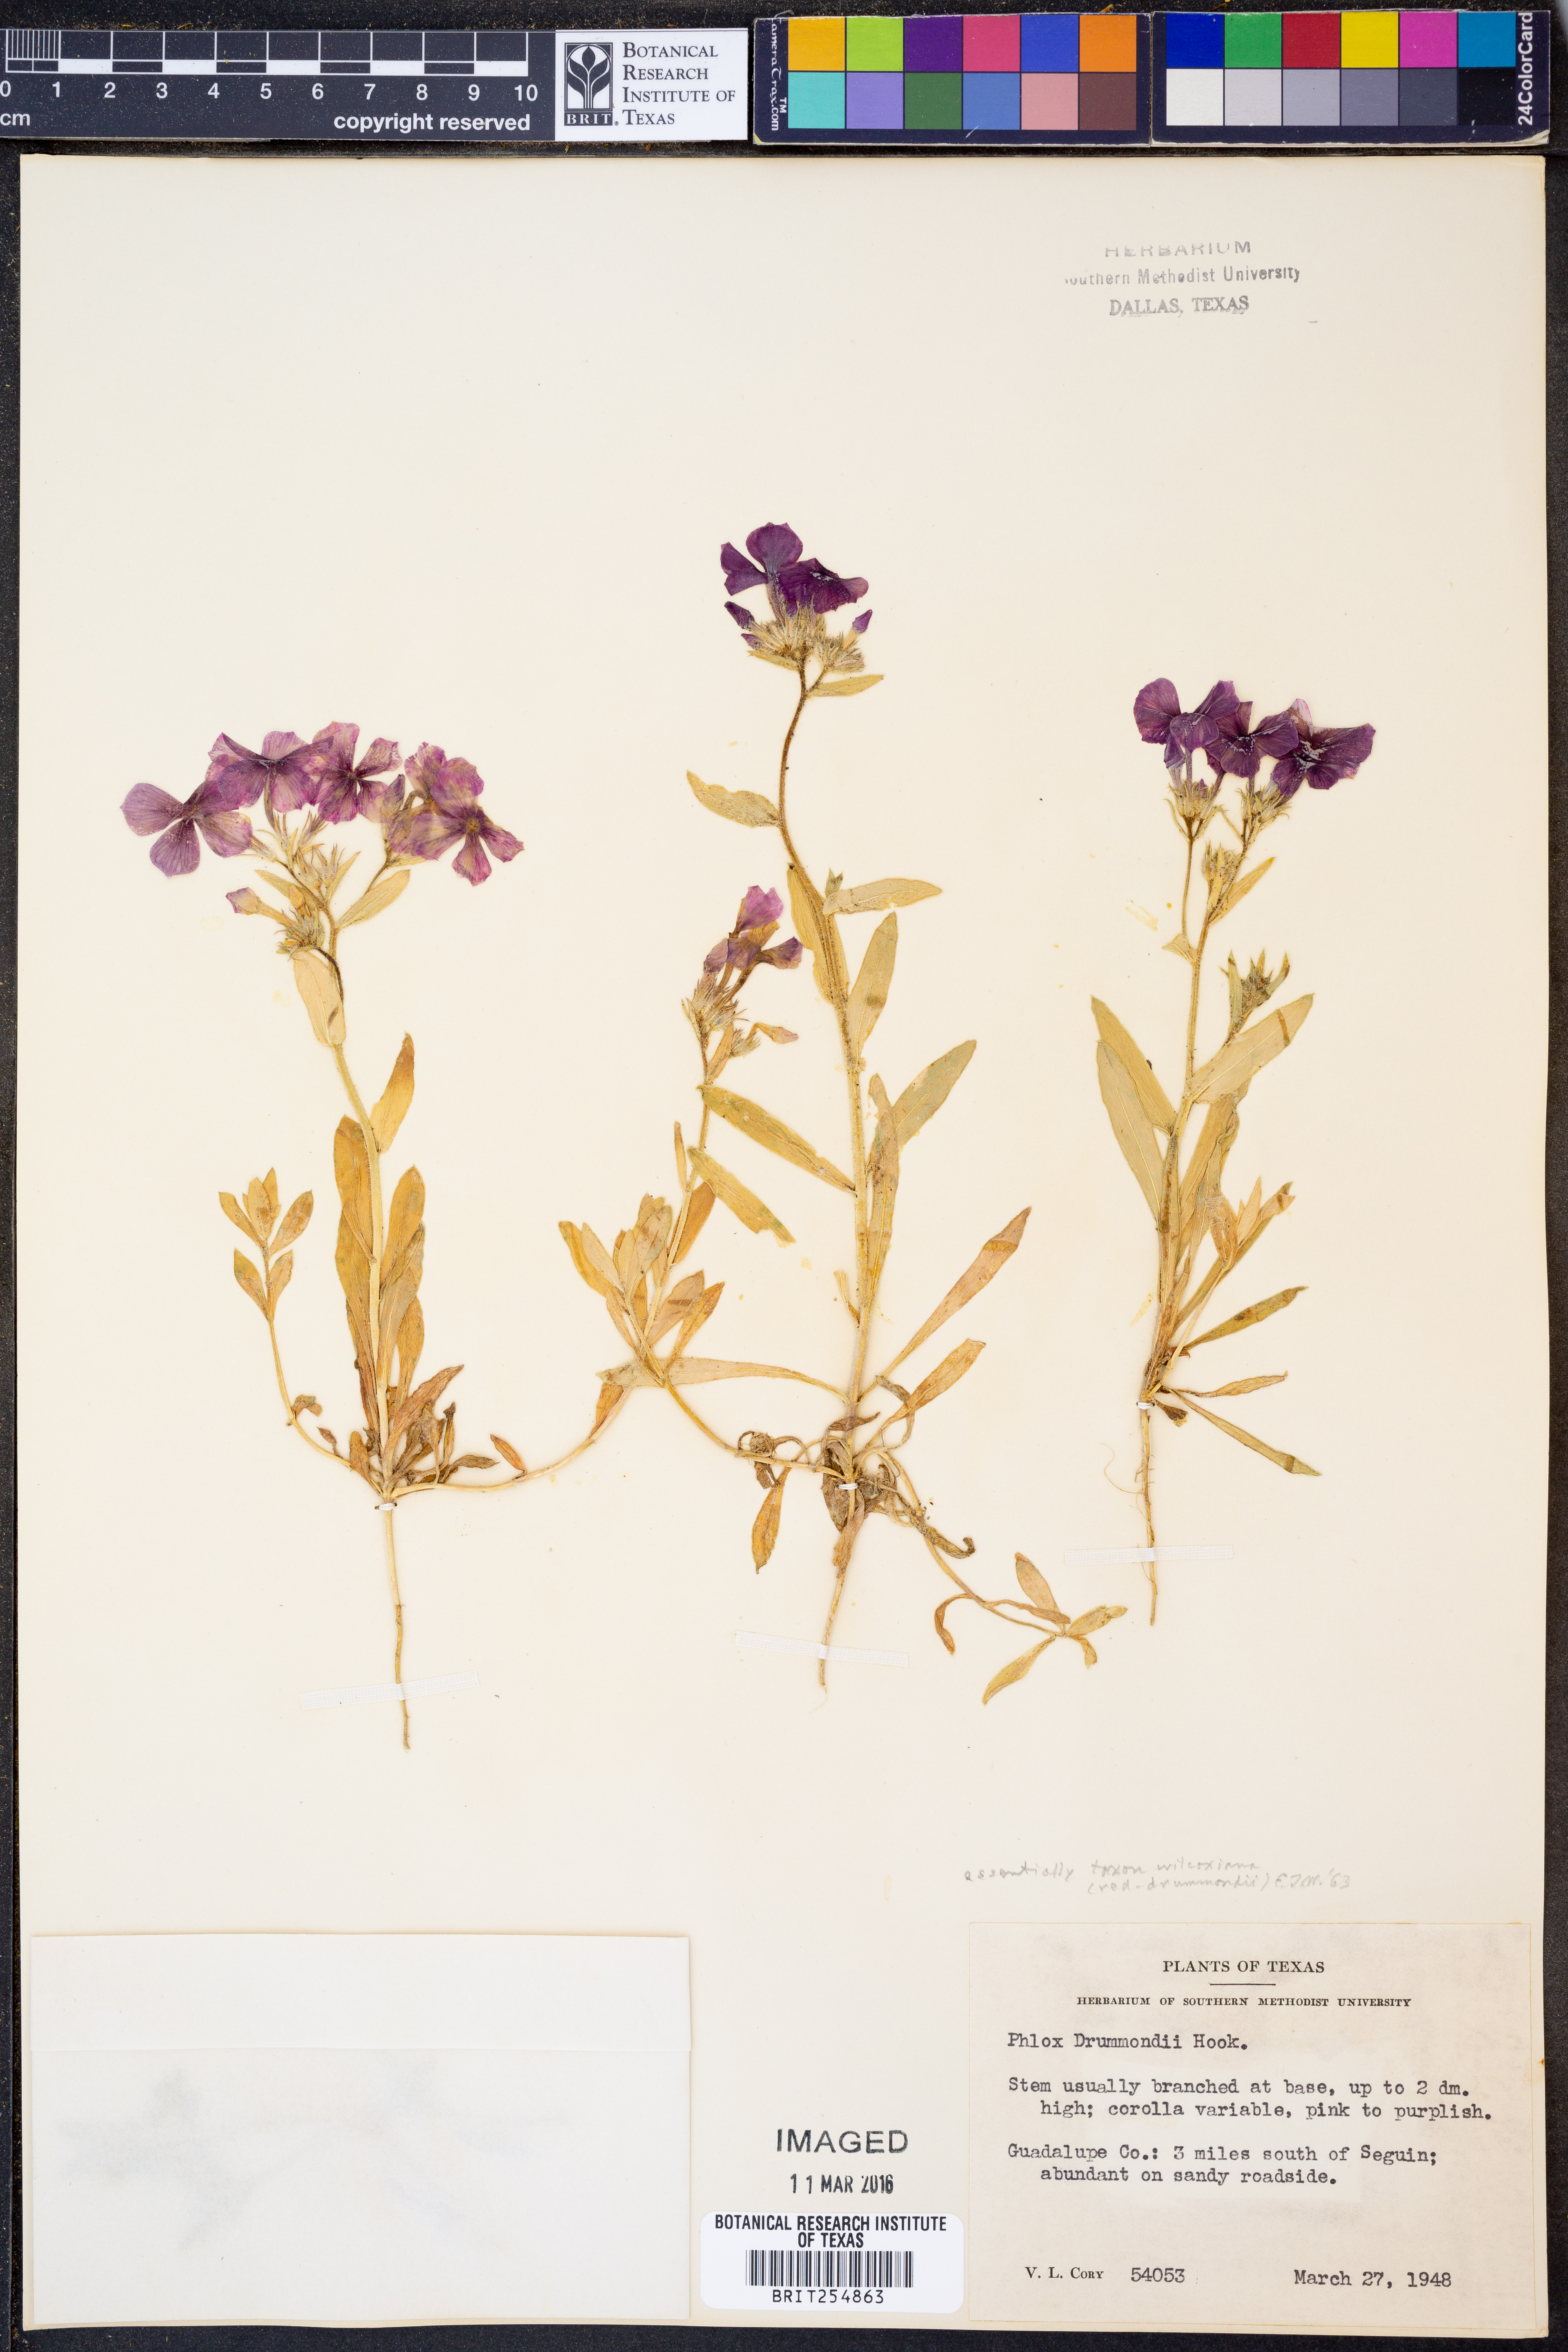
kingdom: Plantae
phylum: Tracheophyta
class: Magnoliopsida
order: Ericales
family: Polemoniaceae
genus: Phlox
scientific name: Phlox drummondii
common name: Drummond's phlox
